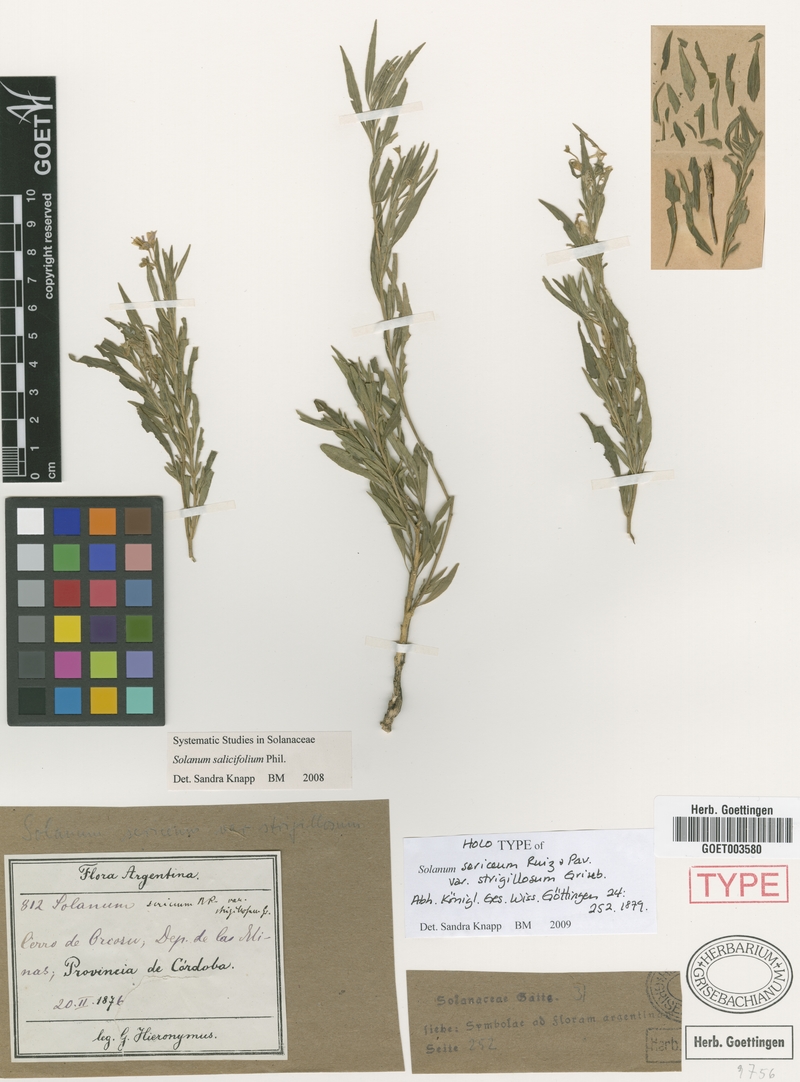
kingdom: Plantae
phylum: Tracheophyta
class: Magnoliopsida
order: Solanales
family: Solanaceae
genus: Solanum
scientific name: Solanum salicifolium
